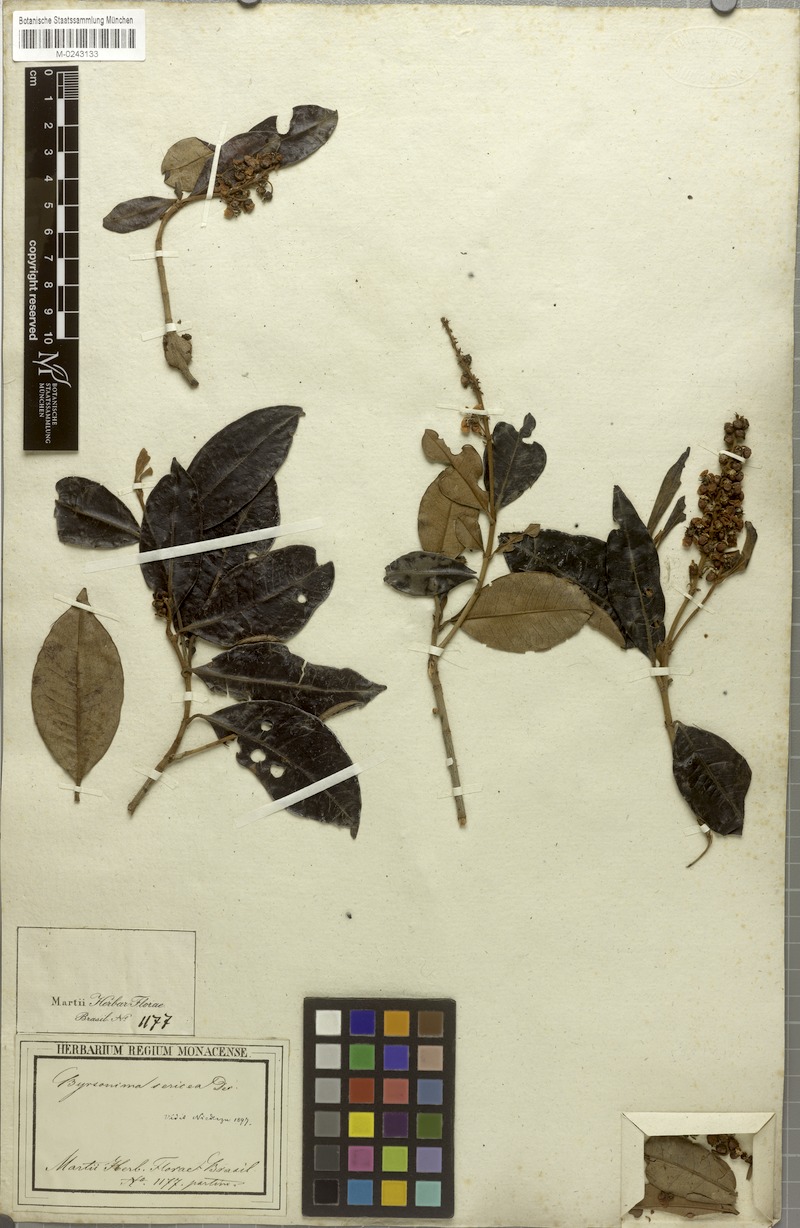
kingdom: Plantae
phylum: Tracheophyta
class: Magnoliopsida
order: Malpighiales
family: Malpighiaceae
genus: Byrsonima
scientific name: Byrsonima sericea
